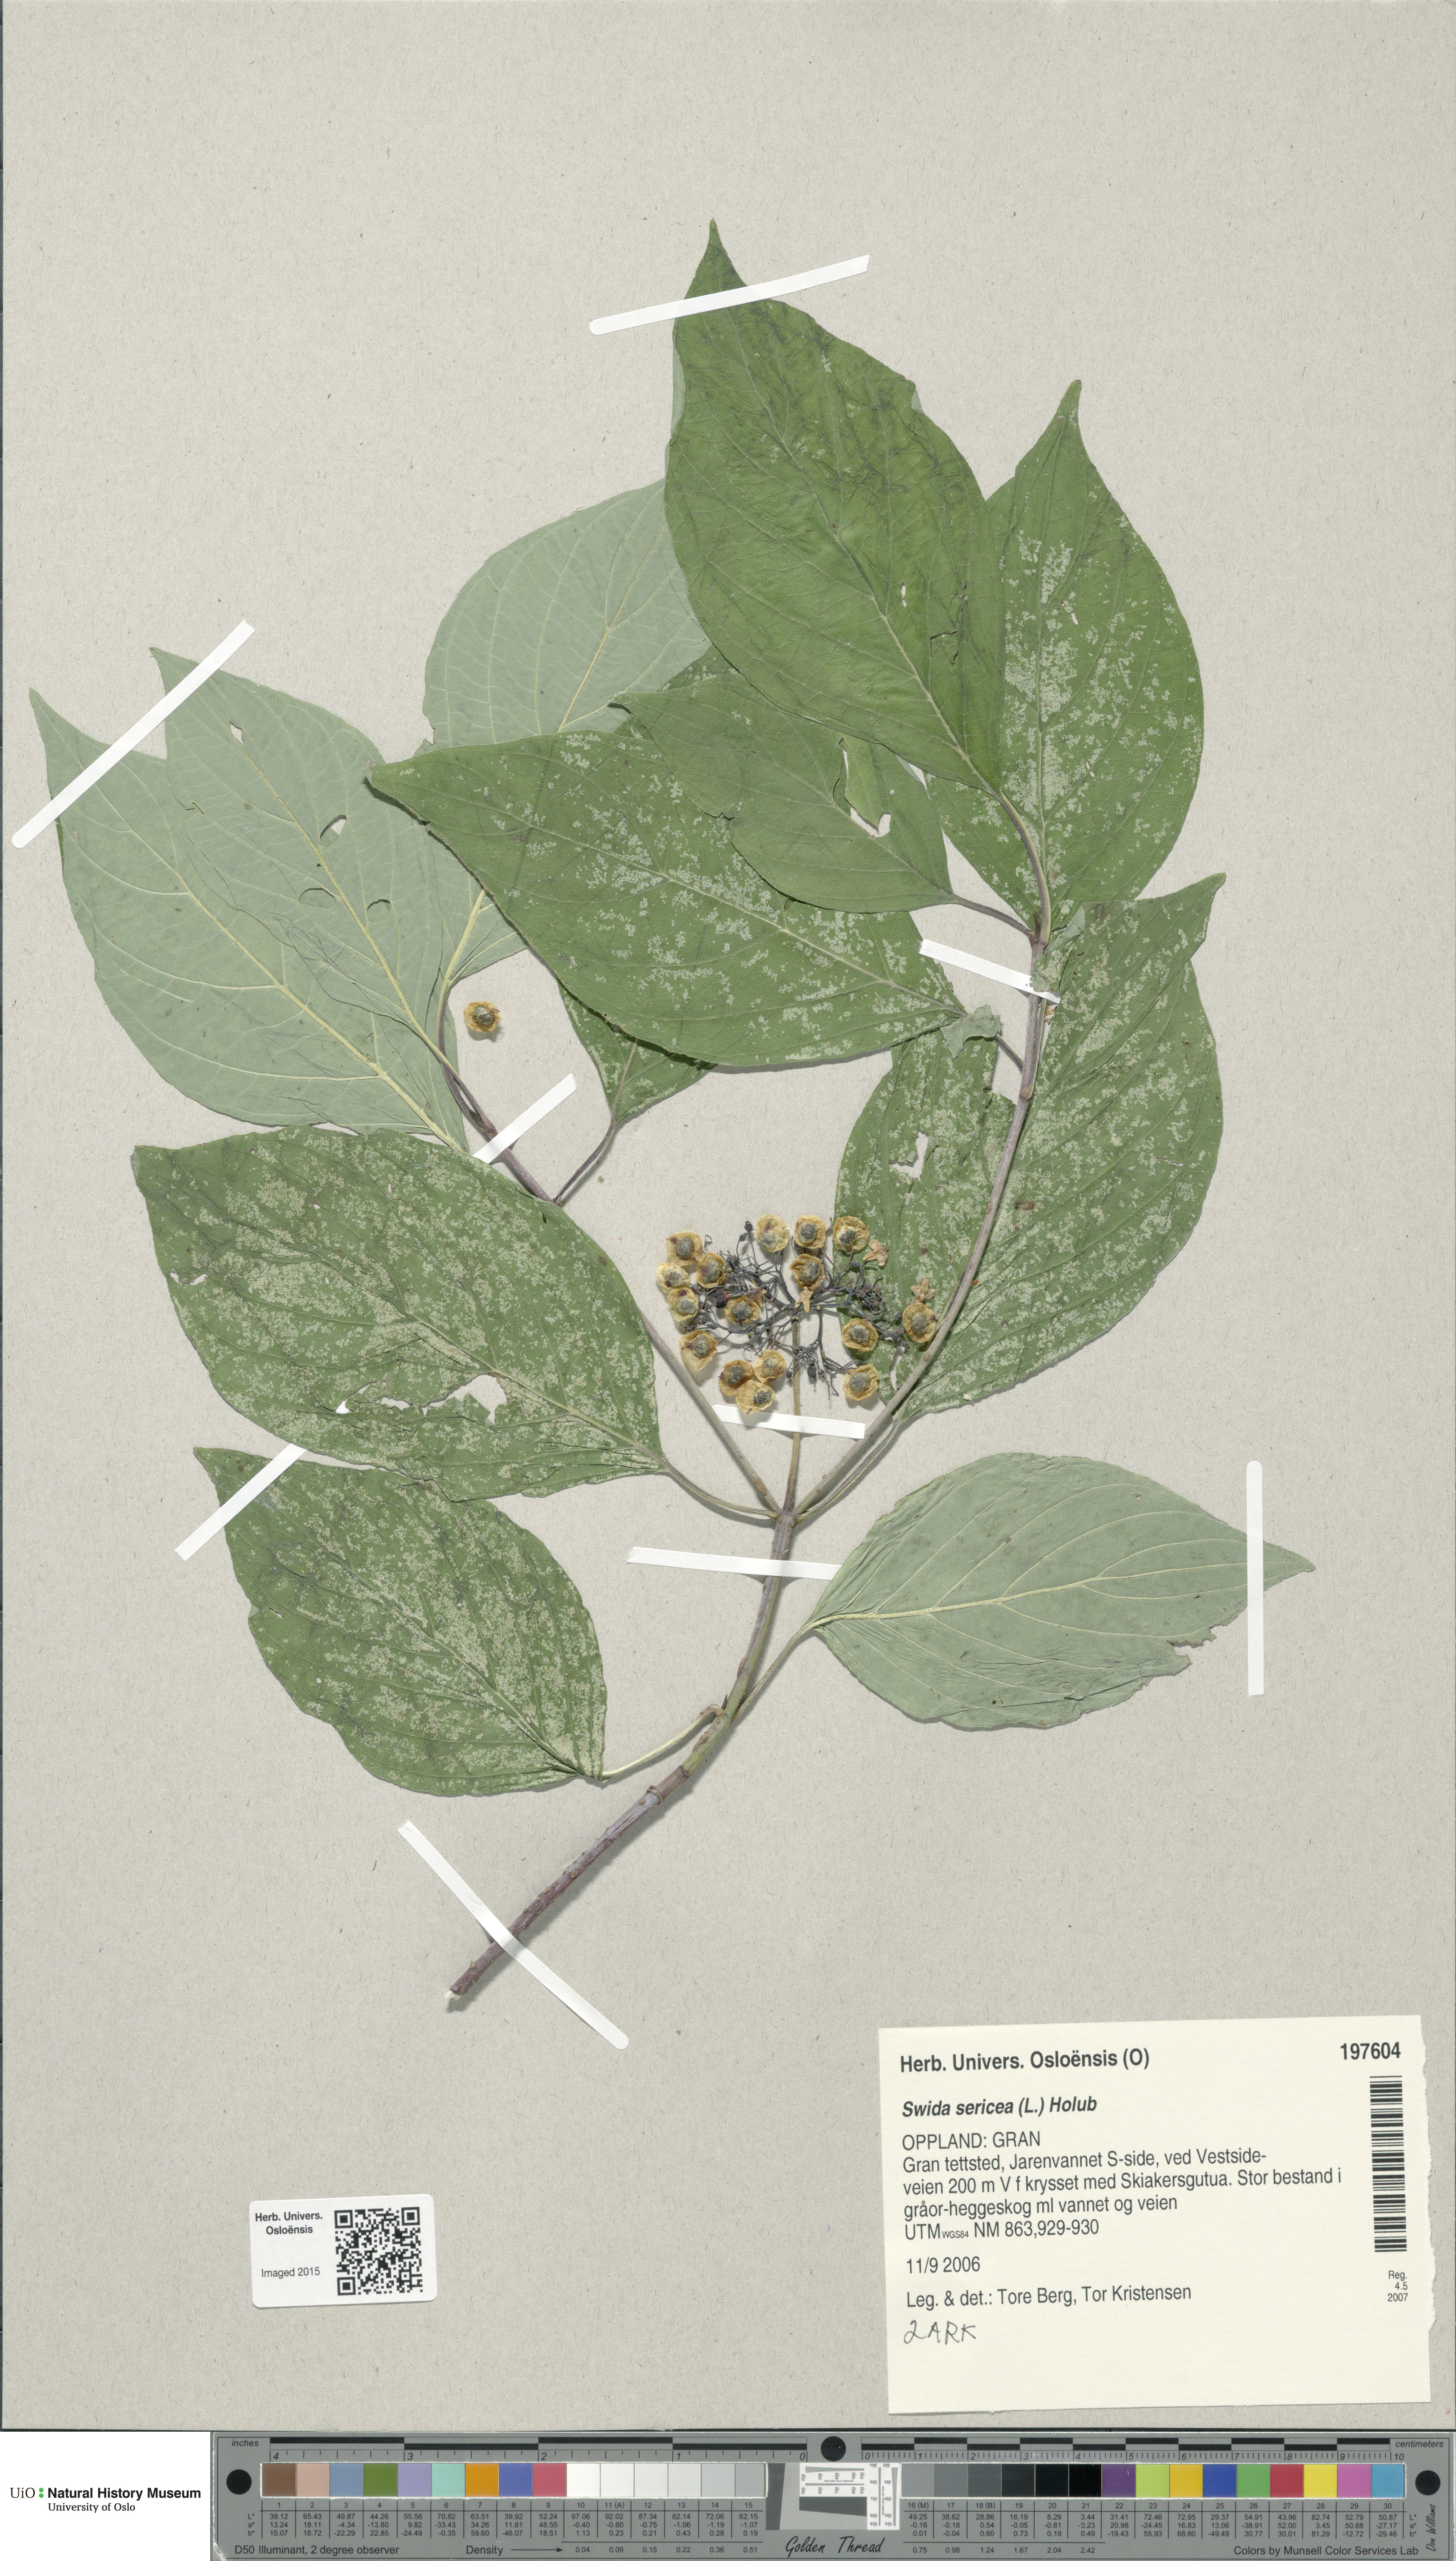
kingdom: Plantae
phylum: Tracheophyta
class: Magnoliopsida
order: Cornales
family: Cornaceae
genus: Cornus
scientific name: Cornus sericea
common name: Red-osier dogwood
